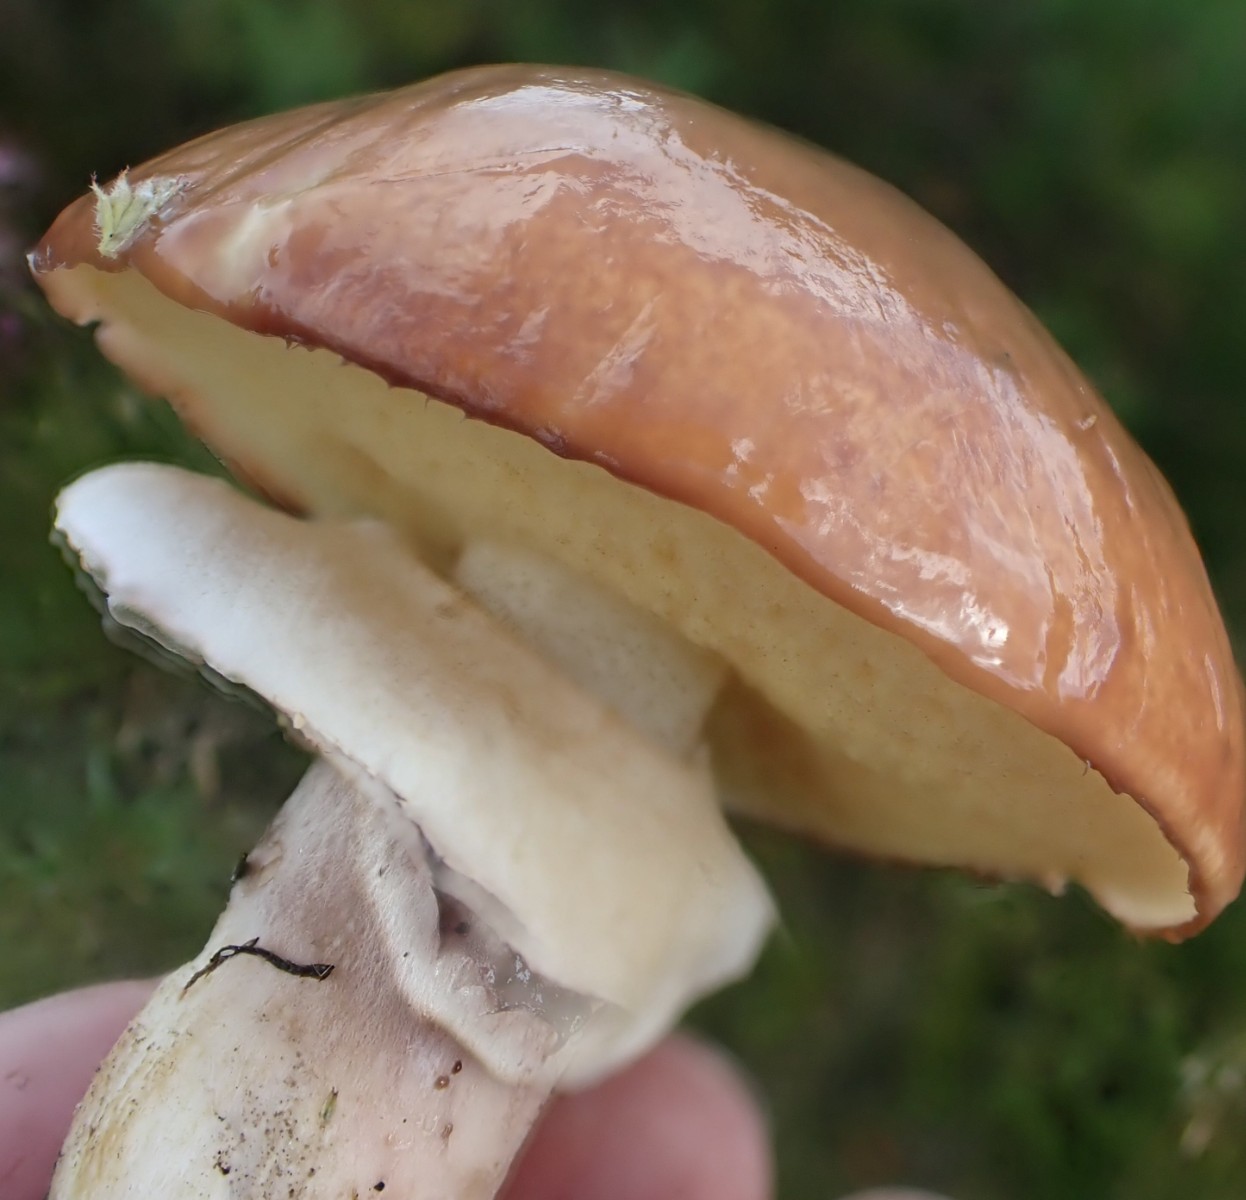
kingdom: Fungi
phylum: Basidiomycota
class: Agaricomycetes
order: Boletales
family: Suillaceae
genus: Suillus
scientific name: Suillus luteus
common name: brungul slimrørhat
